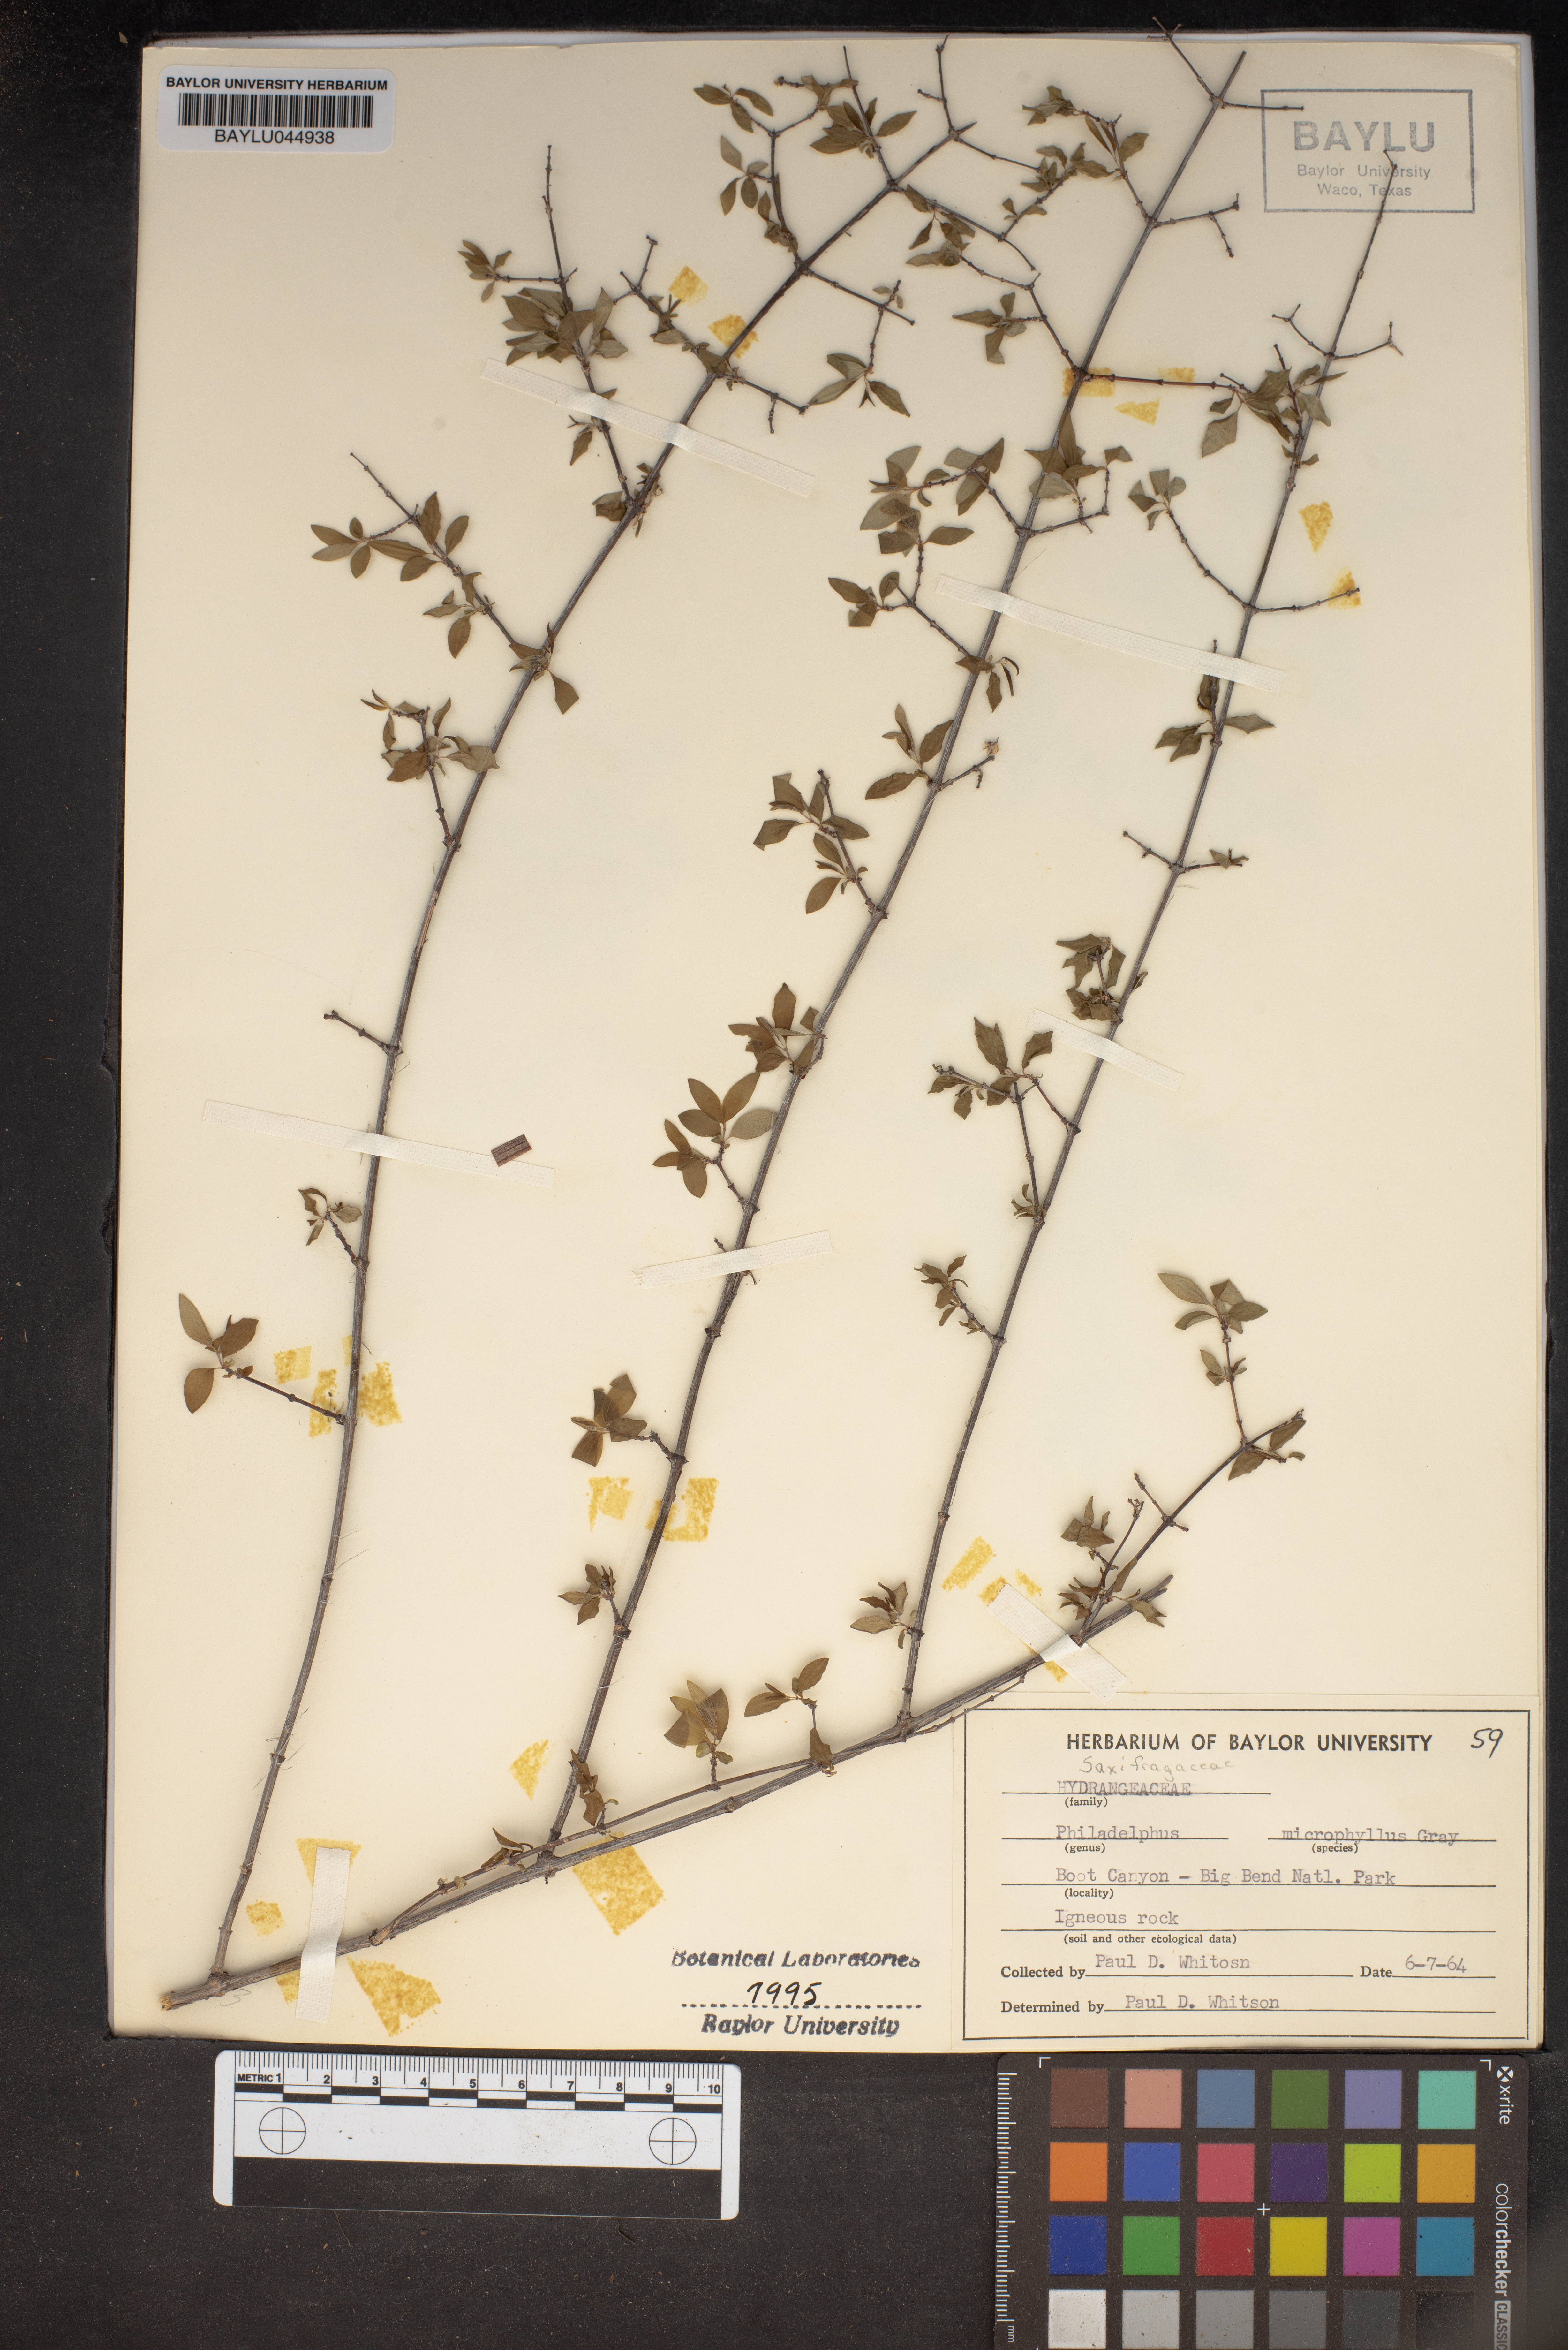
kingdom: Plantae
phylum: Tracheophyta
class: Magnoliopsida
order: Cornales
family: Hydrangeaceae
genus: Philadelphus
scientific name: Philadelphus microphyllus
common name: Desert mock orange
